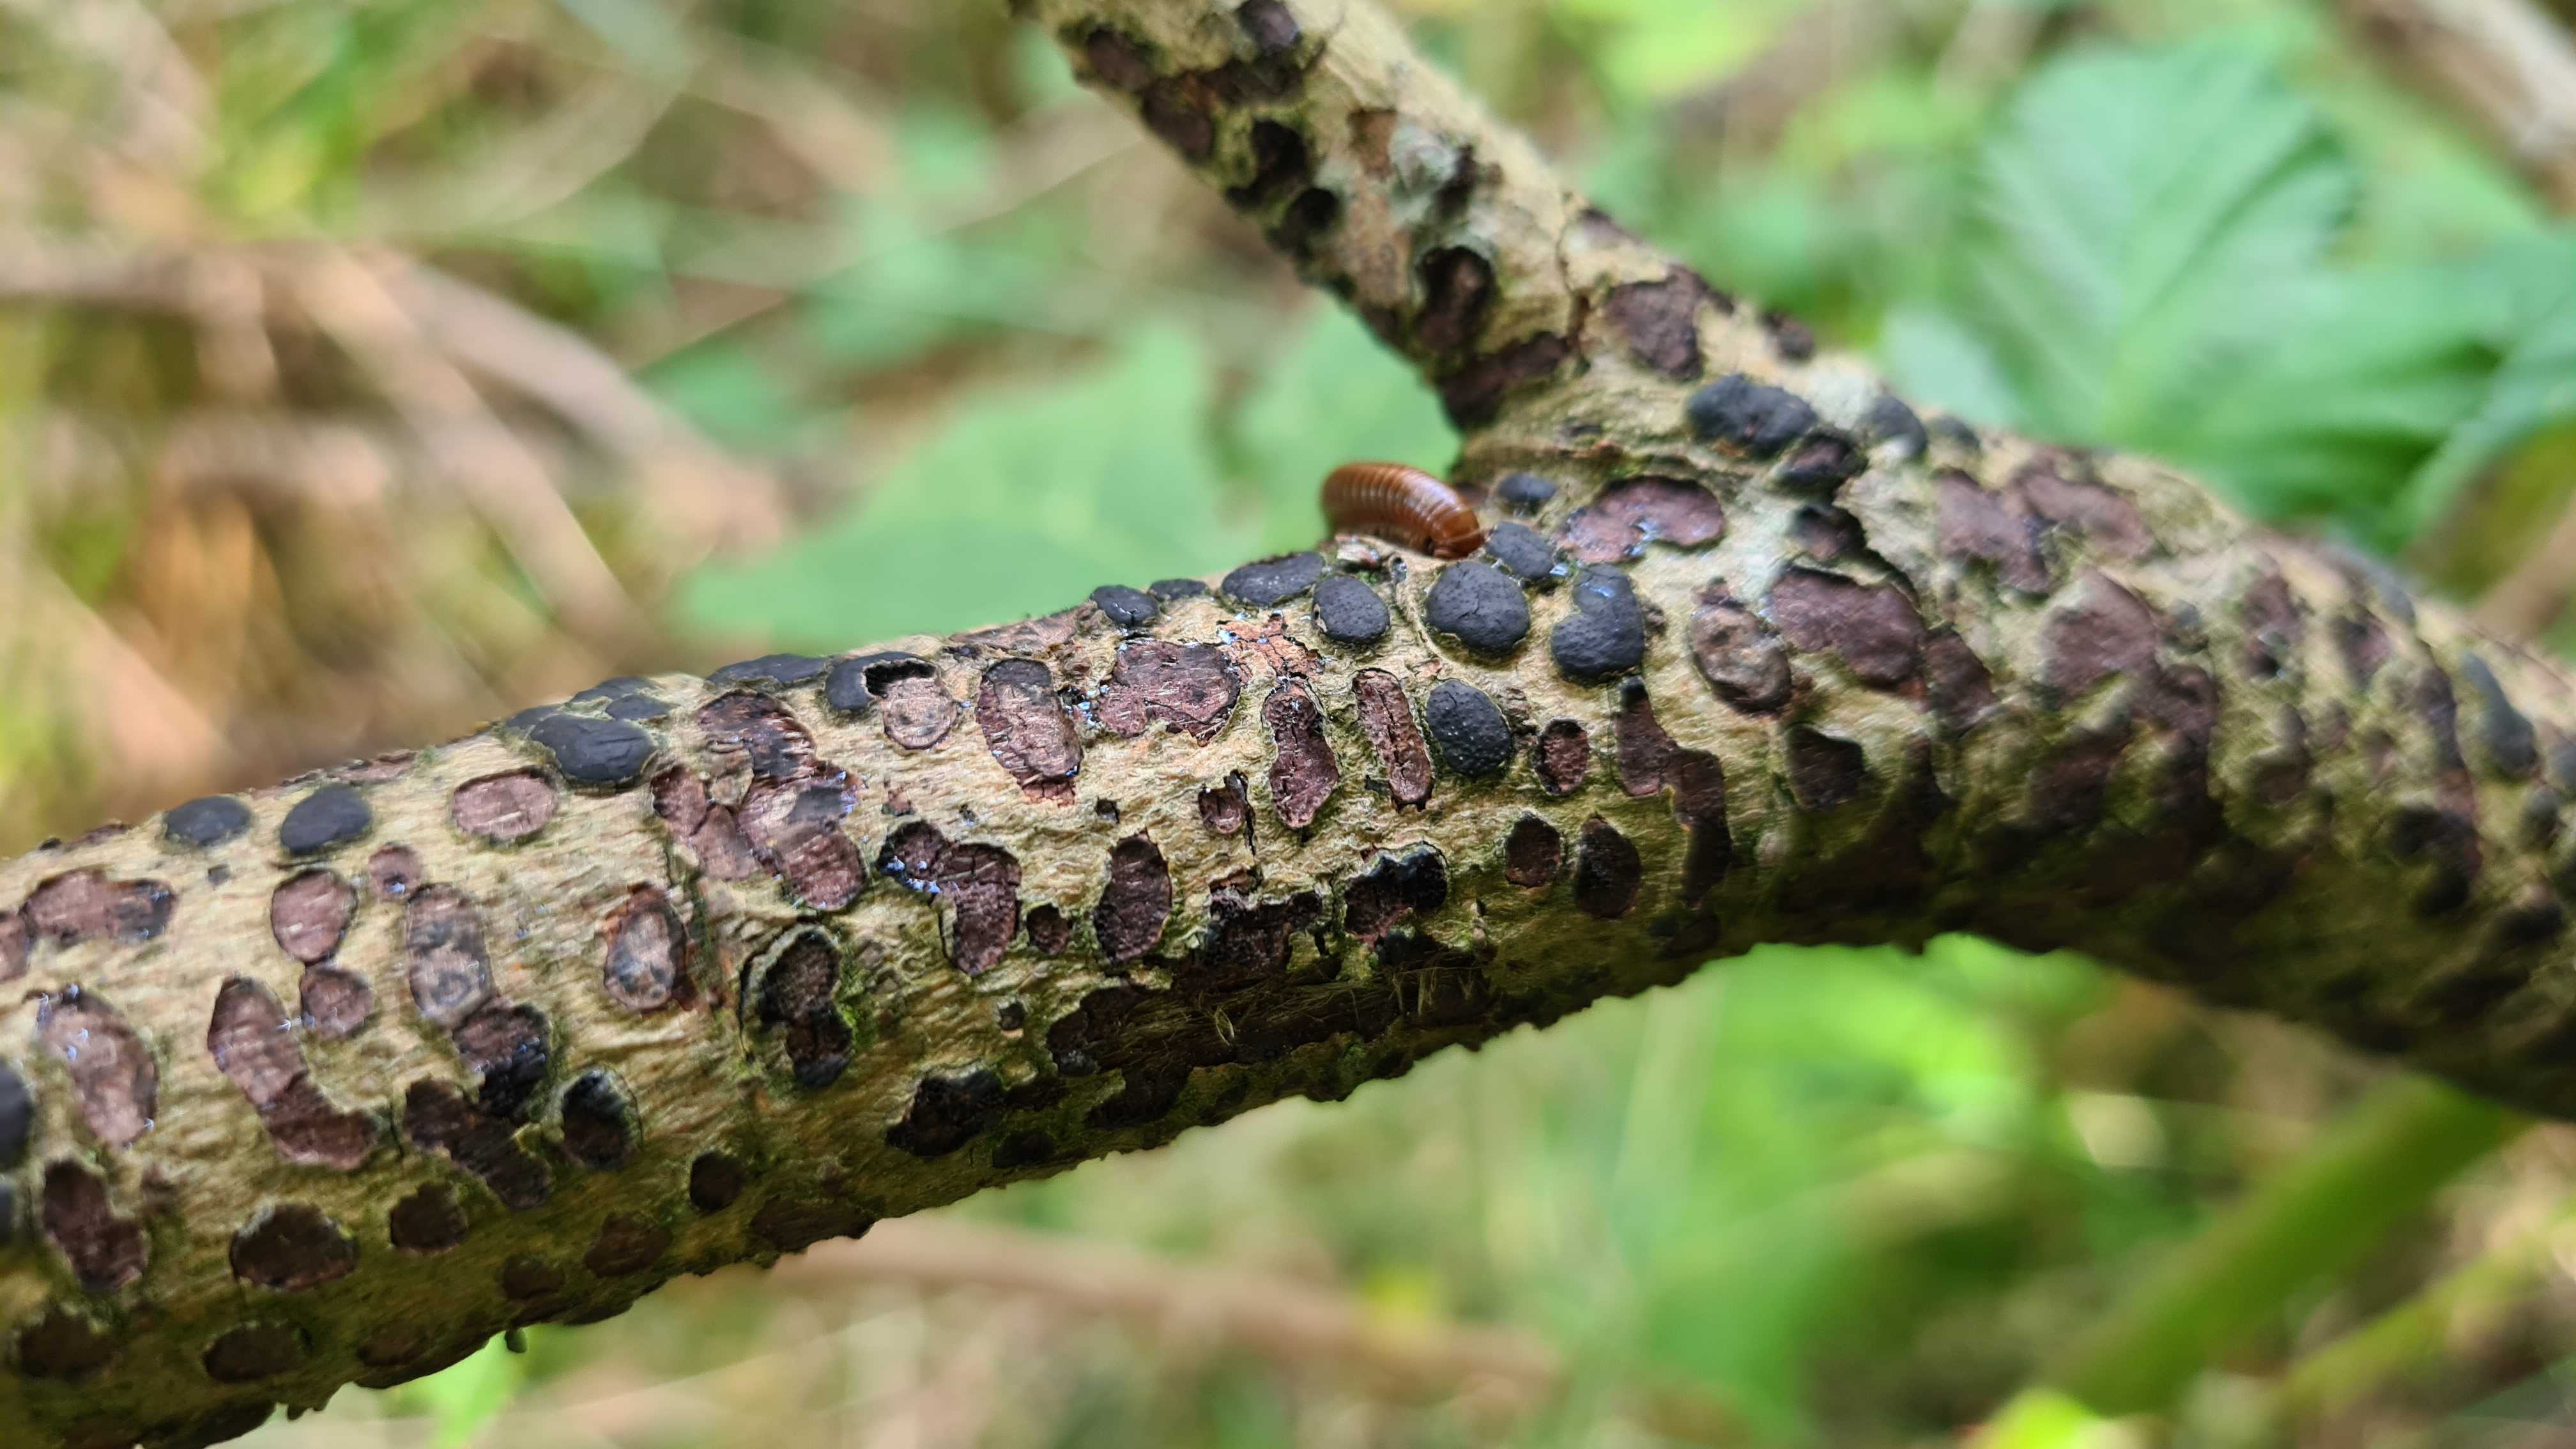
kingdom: Fungi
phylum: Ascomycota
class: Sordariomycetes
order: Xylariales
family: Diatrypaceae
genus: Diatrype
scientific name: Diatrype bullata
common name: pile-kulskorpe
